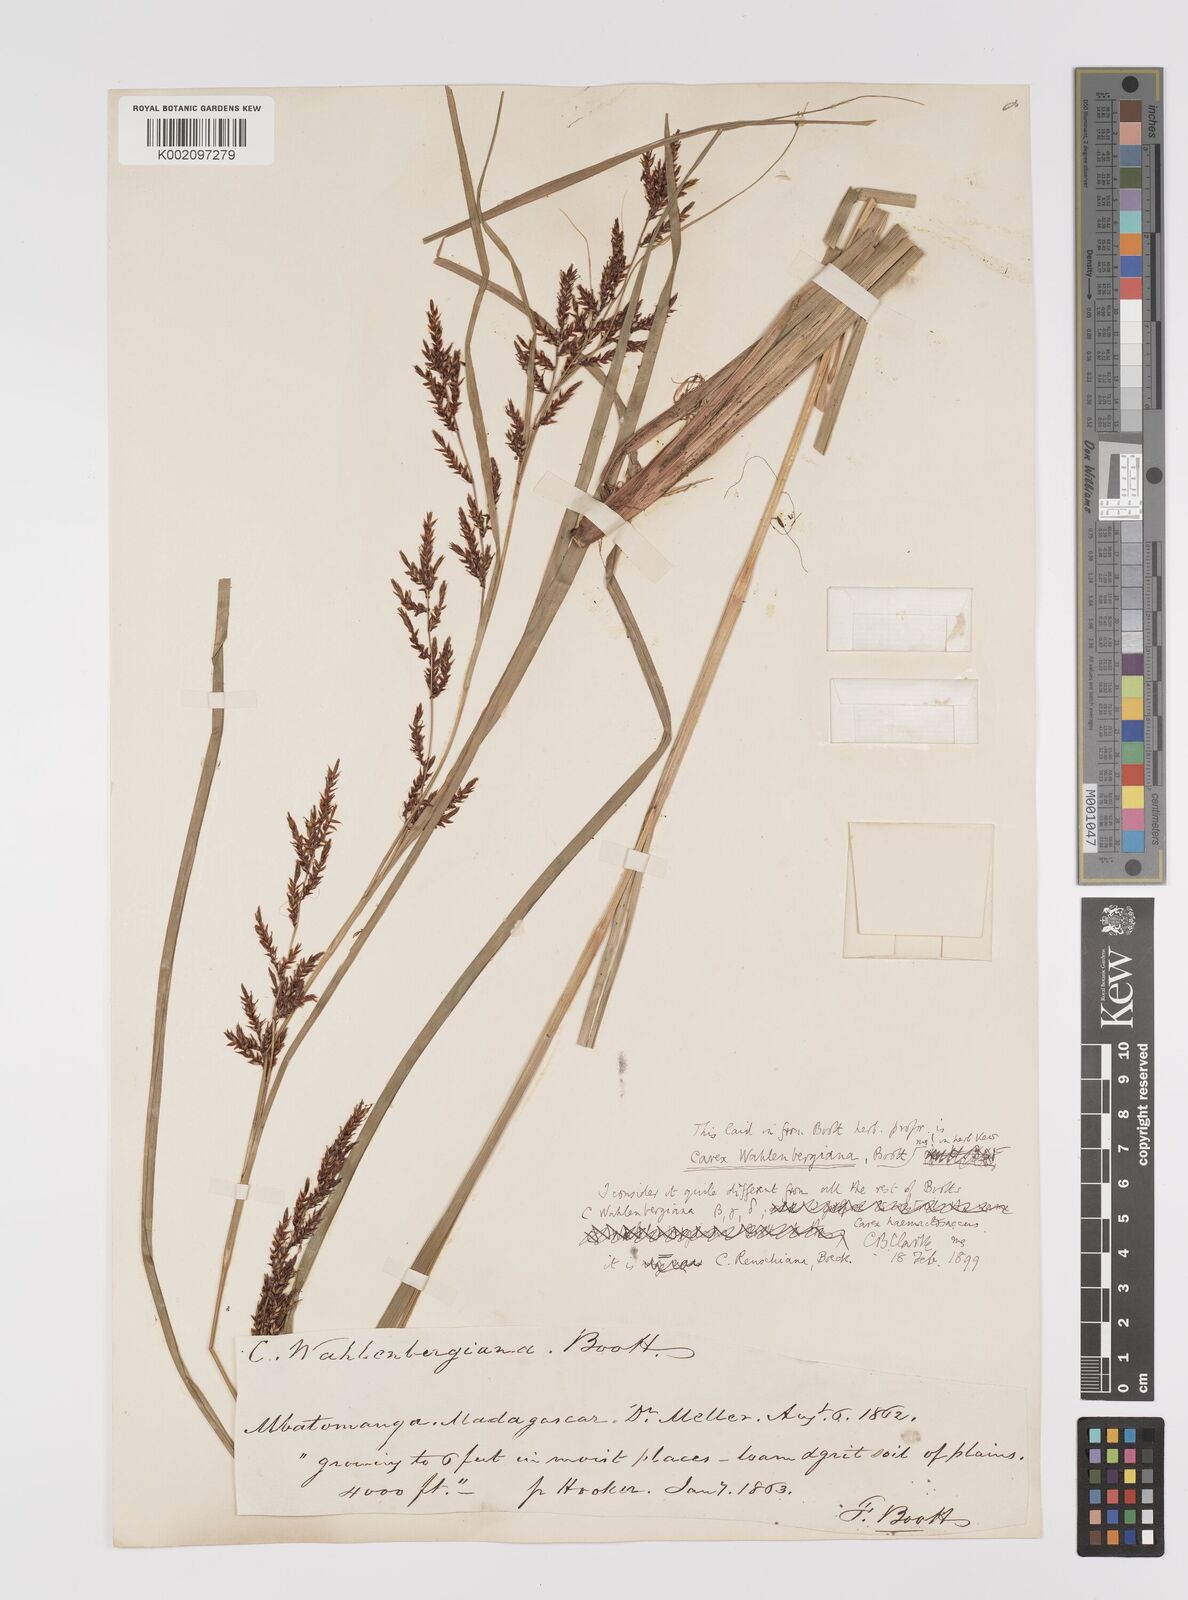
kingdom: Plantae
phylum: Tracheophyta
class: Liliopsida
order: Poales
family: Cyperaceae
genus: Carex
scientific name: Carex renschiana
